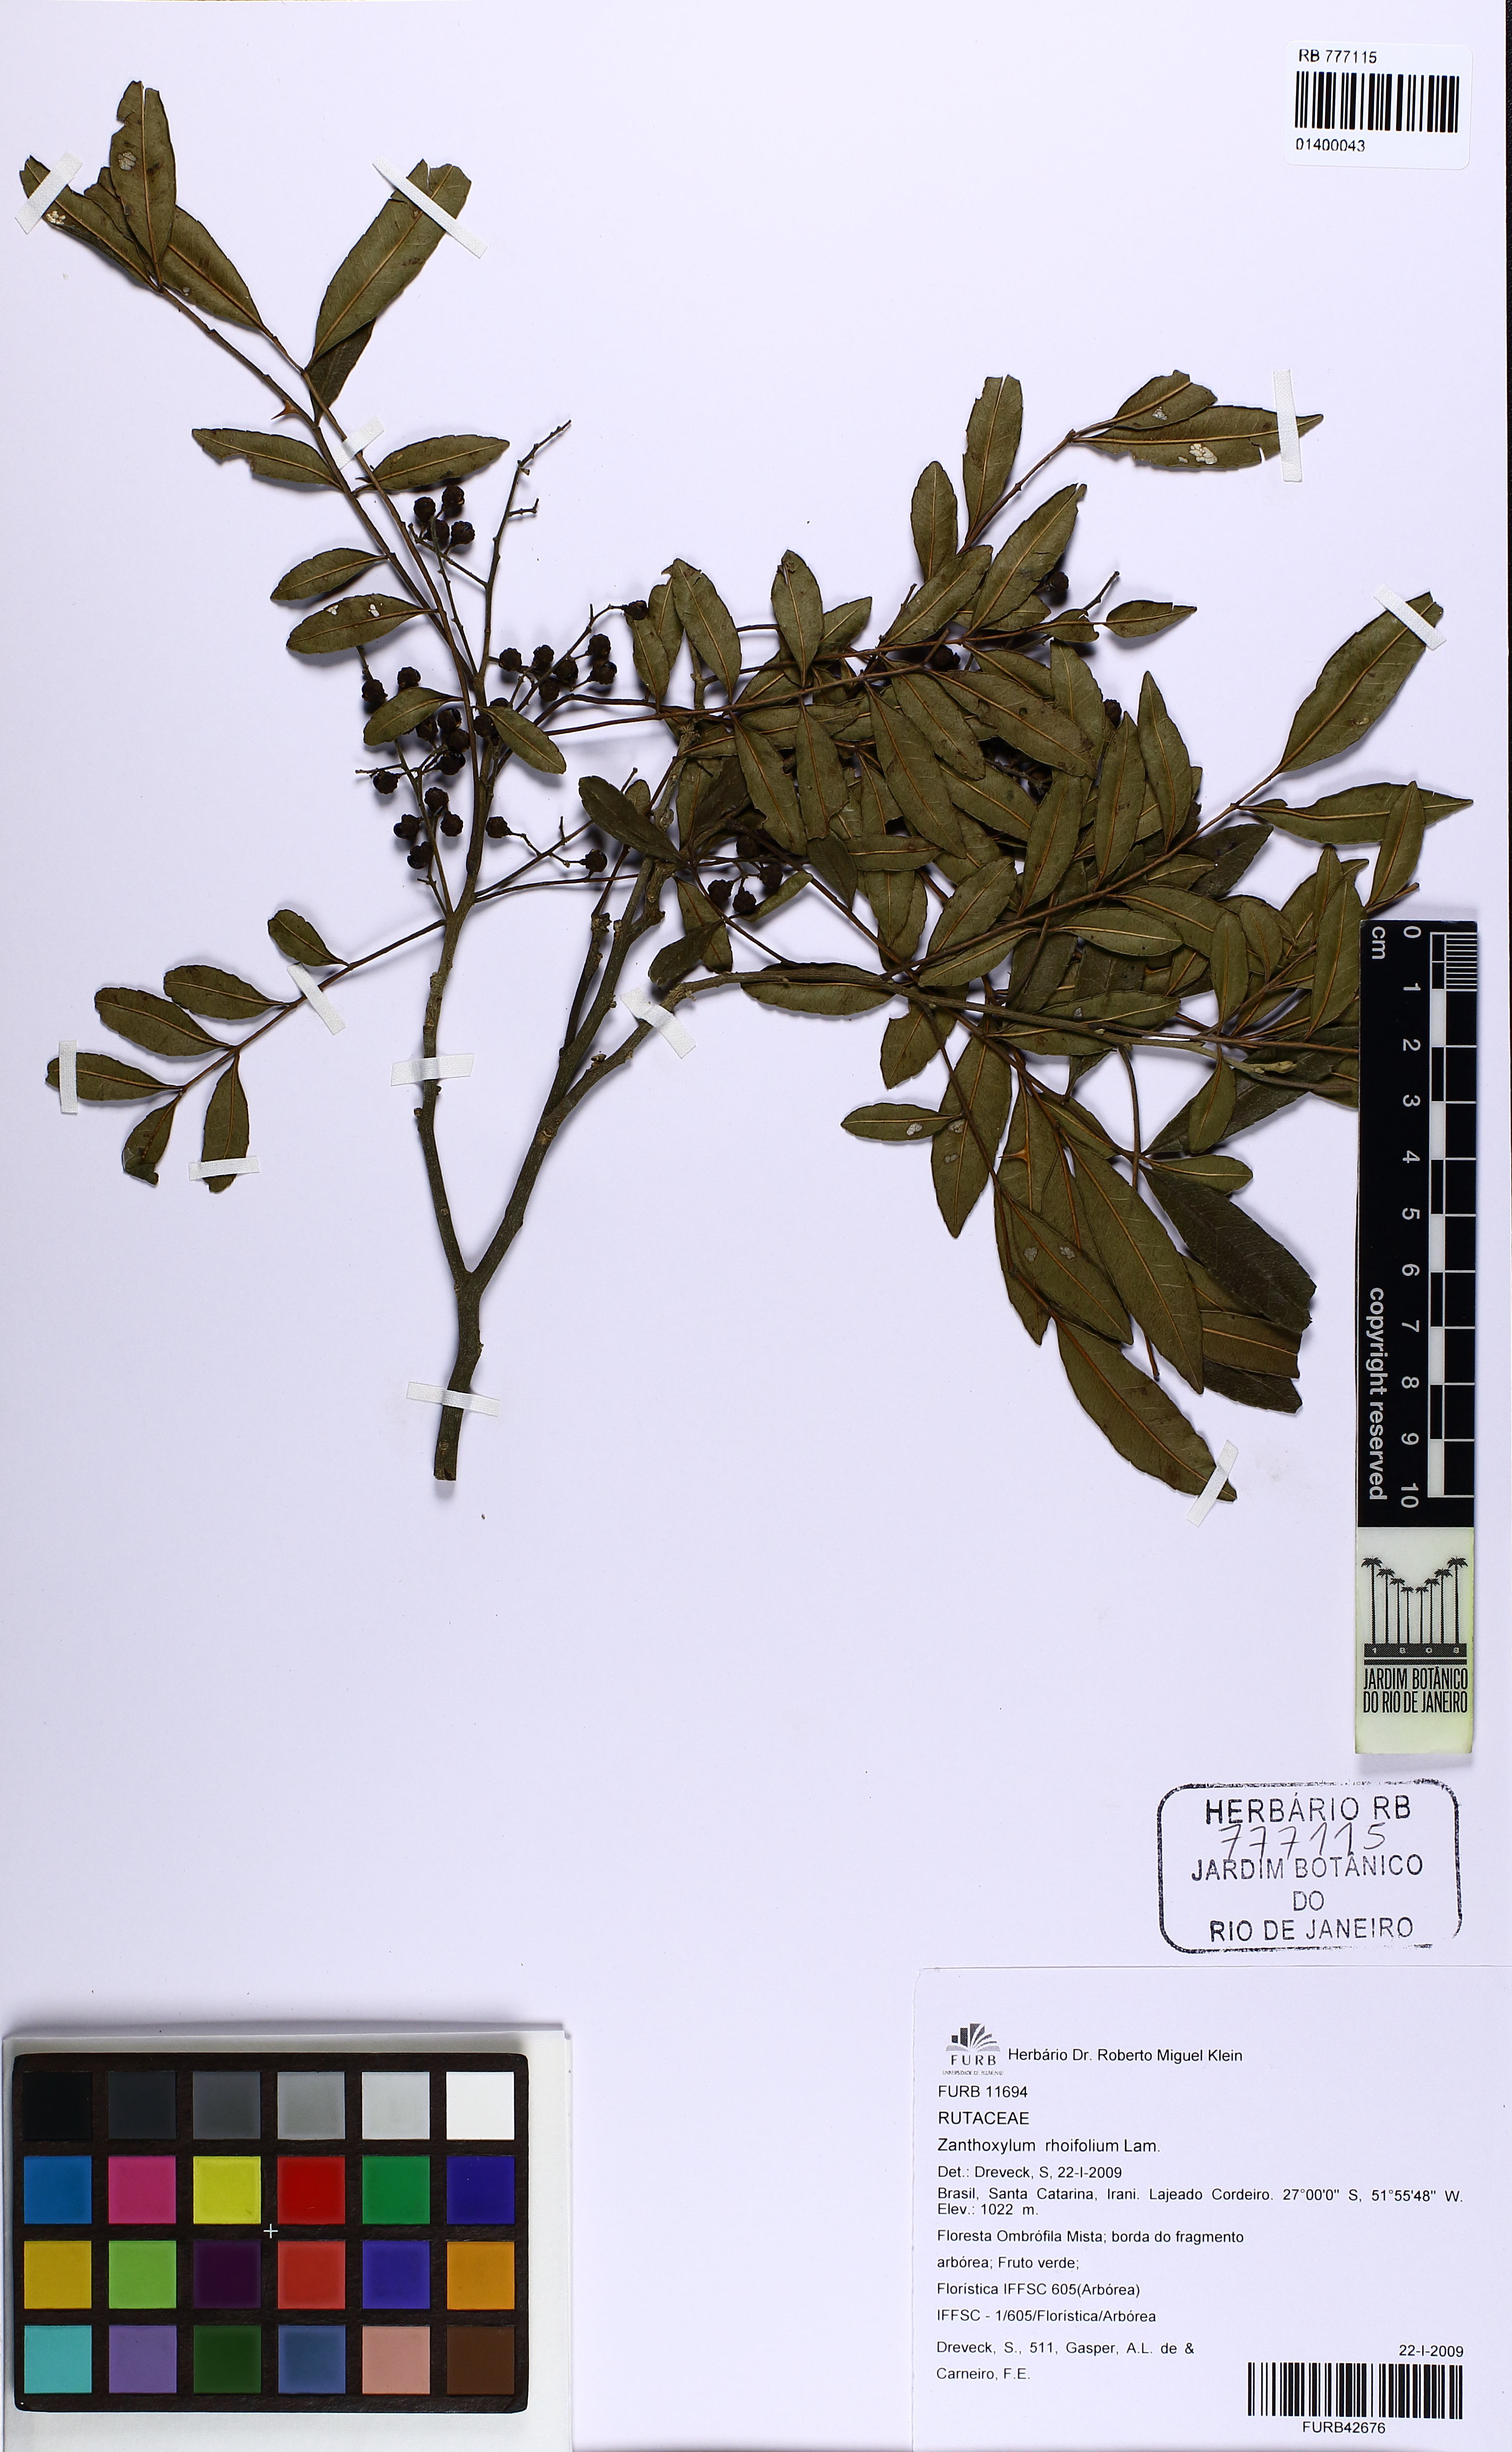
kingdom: Plantae
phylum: Tracheophyta
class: Magnoliopsida
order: Sapindales
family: Rutaceae
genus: Zanthoxylum
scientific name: Zanthoxylum rhoifolium
